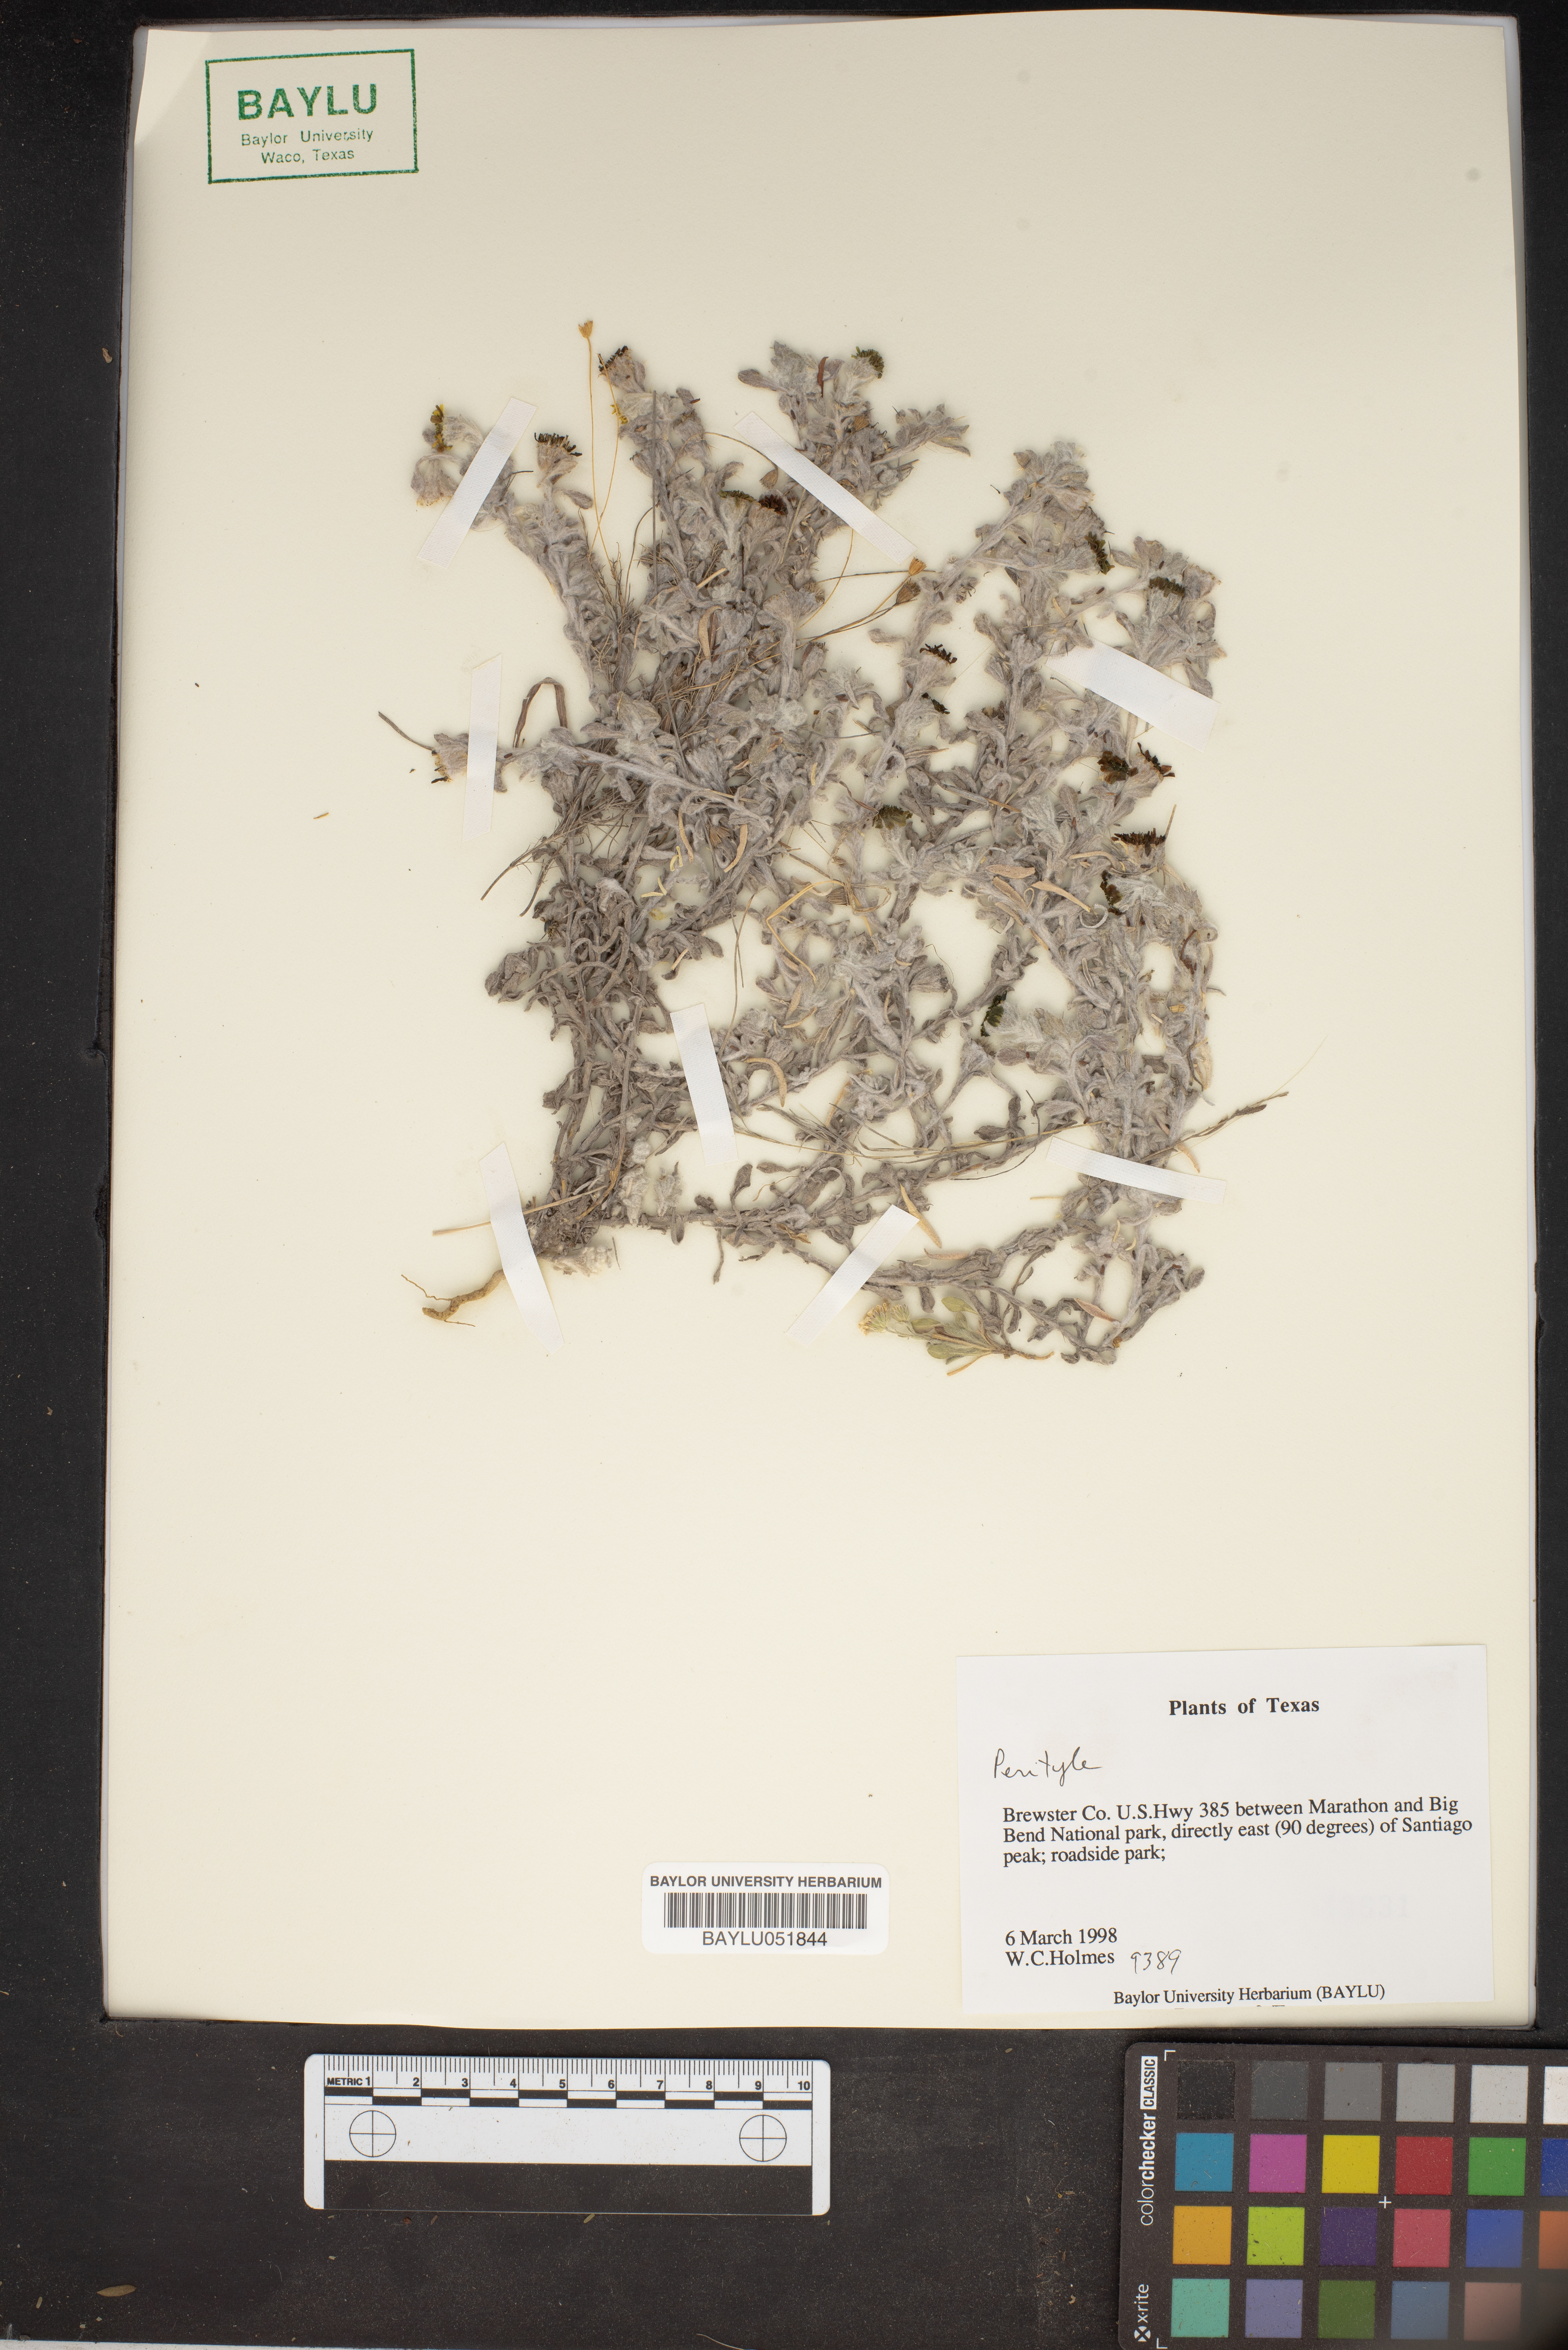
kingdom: Plantae
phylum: Tracheophyta
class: Magnoliopsida
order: Asterales
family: Asteraceae
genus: Perityle
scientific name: Perityle
